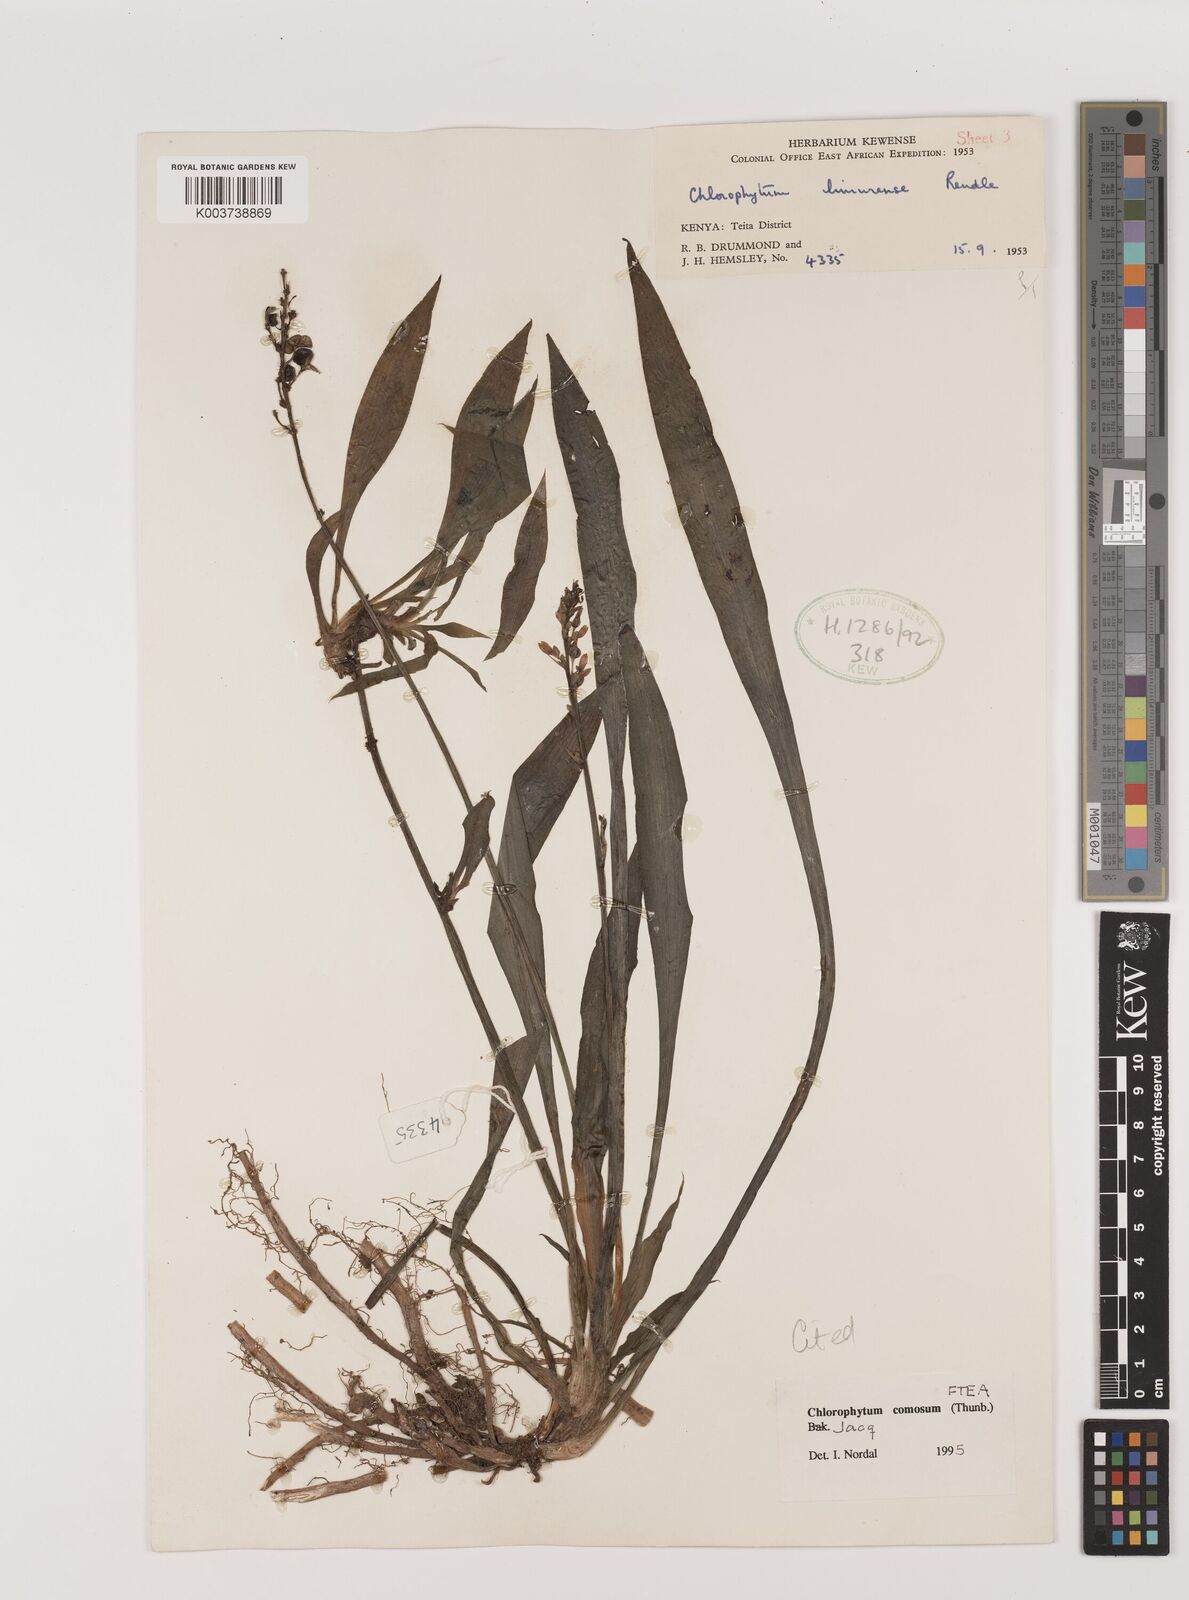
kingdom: Plantae
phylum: Tracheophyta
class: Liliopsida
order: Asparagales
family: Asparagaceae
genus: Chlorophytum
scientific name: Chlorophytum comosum
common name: Spider plant
